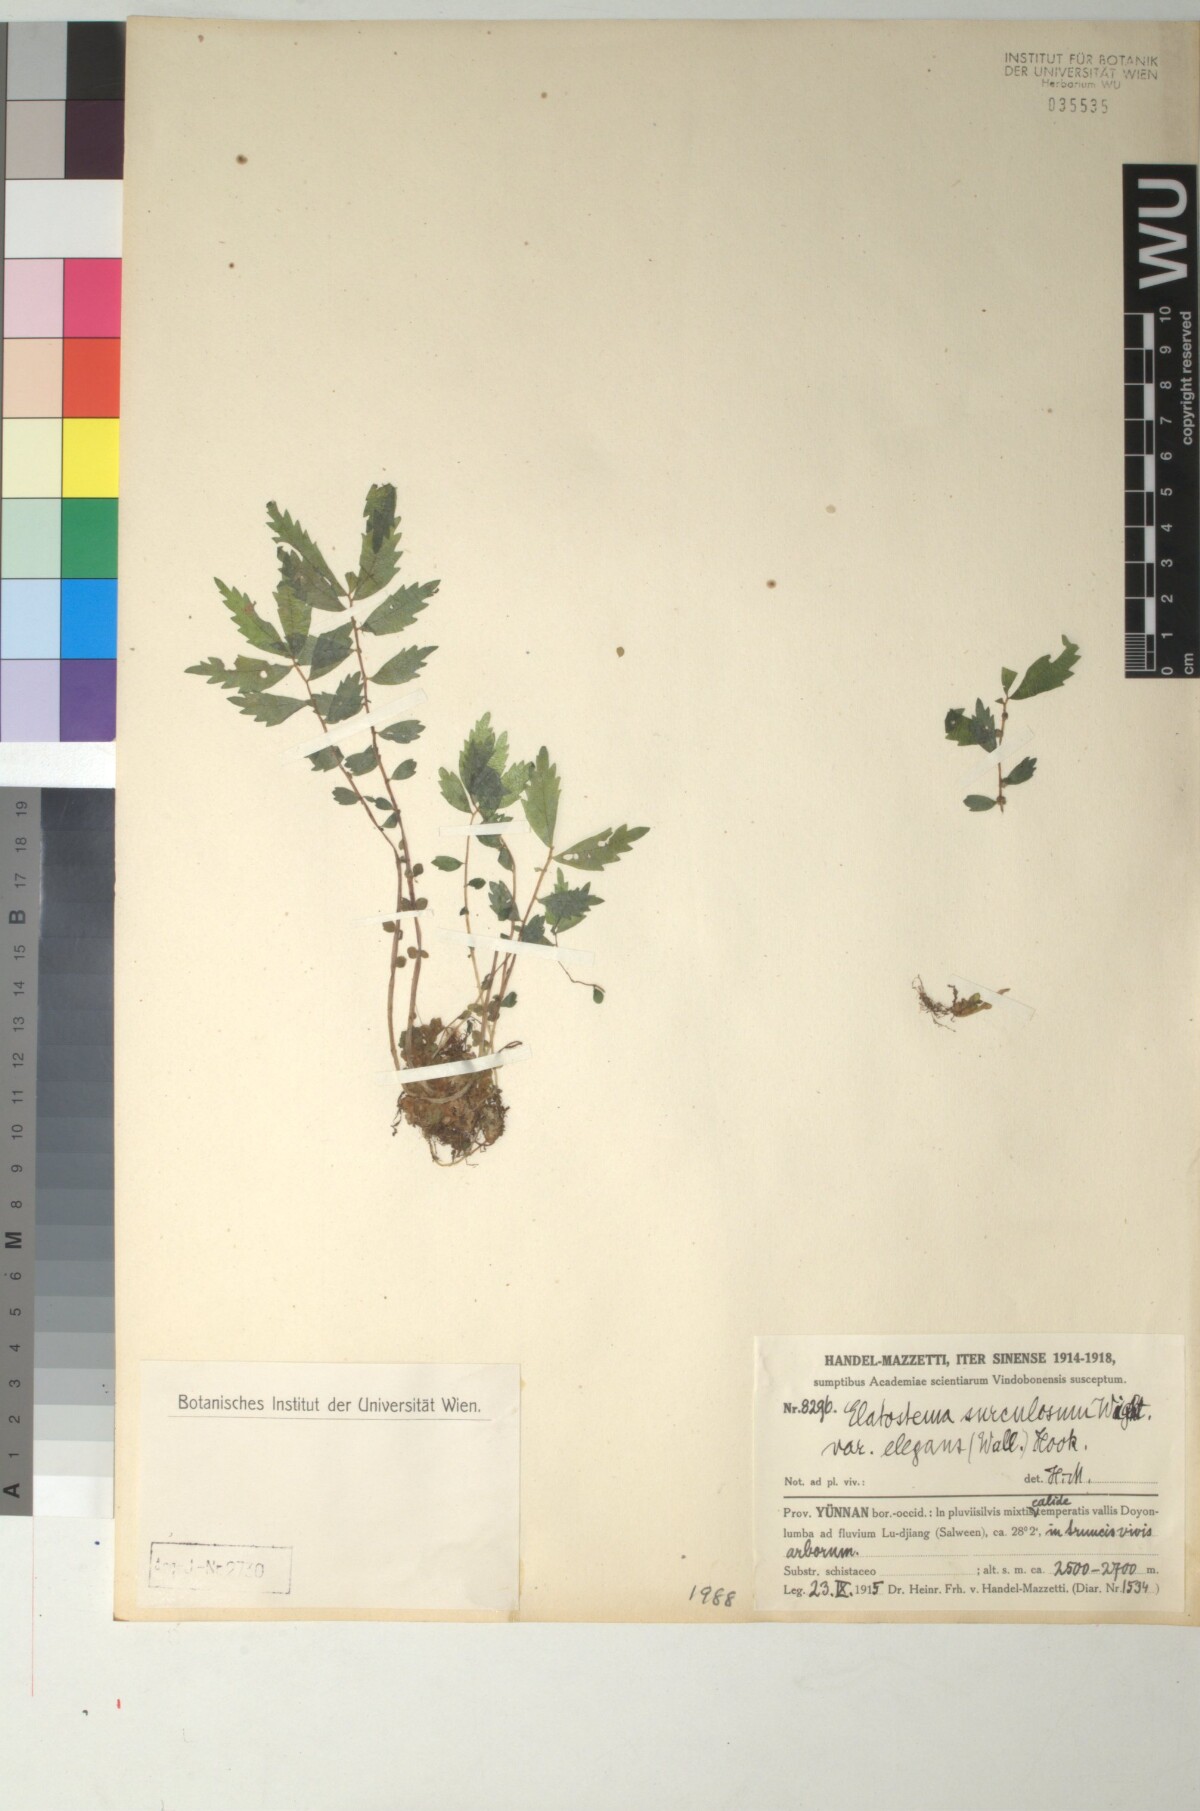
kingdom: Plantae
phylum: Tracheophyta
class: Magnoliopsida
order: Rosales
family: Urticaceae
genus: Elatostema
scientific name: Elatostema monandrum
